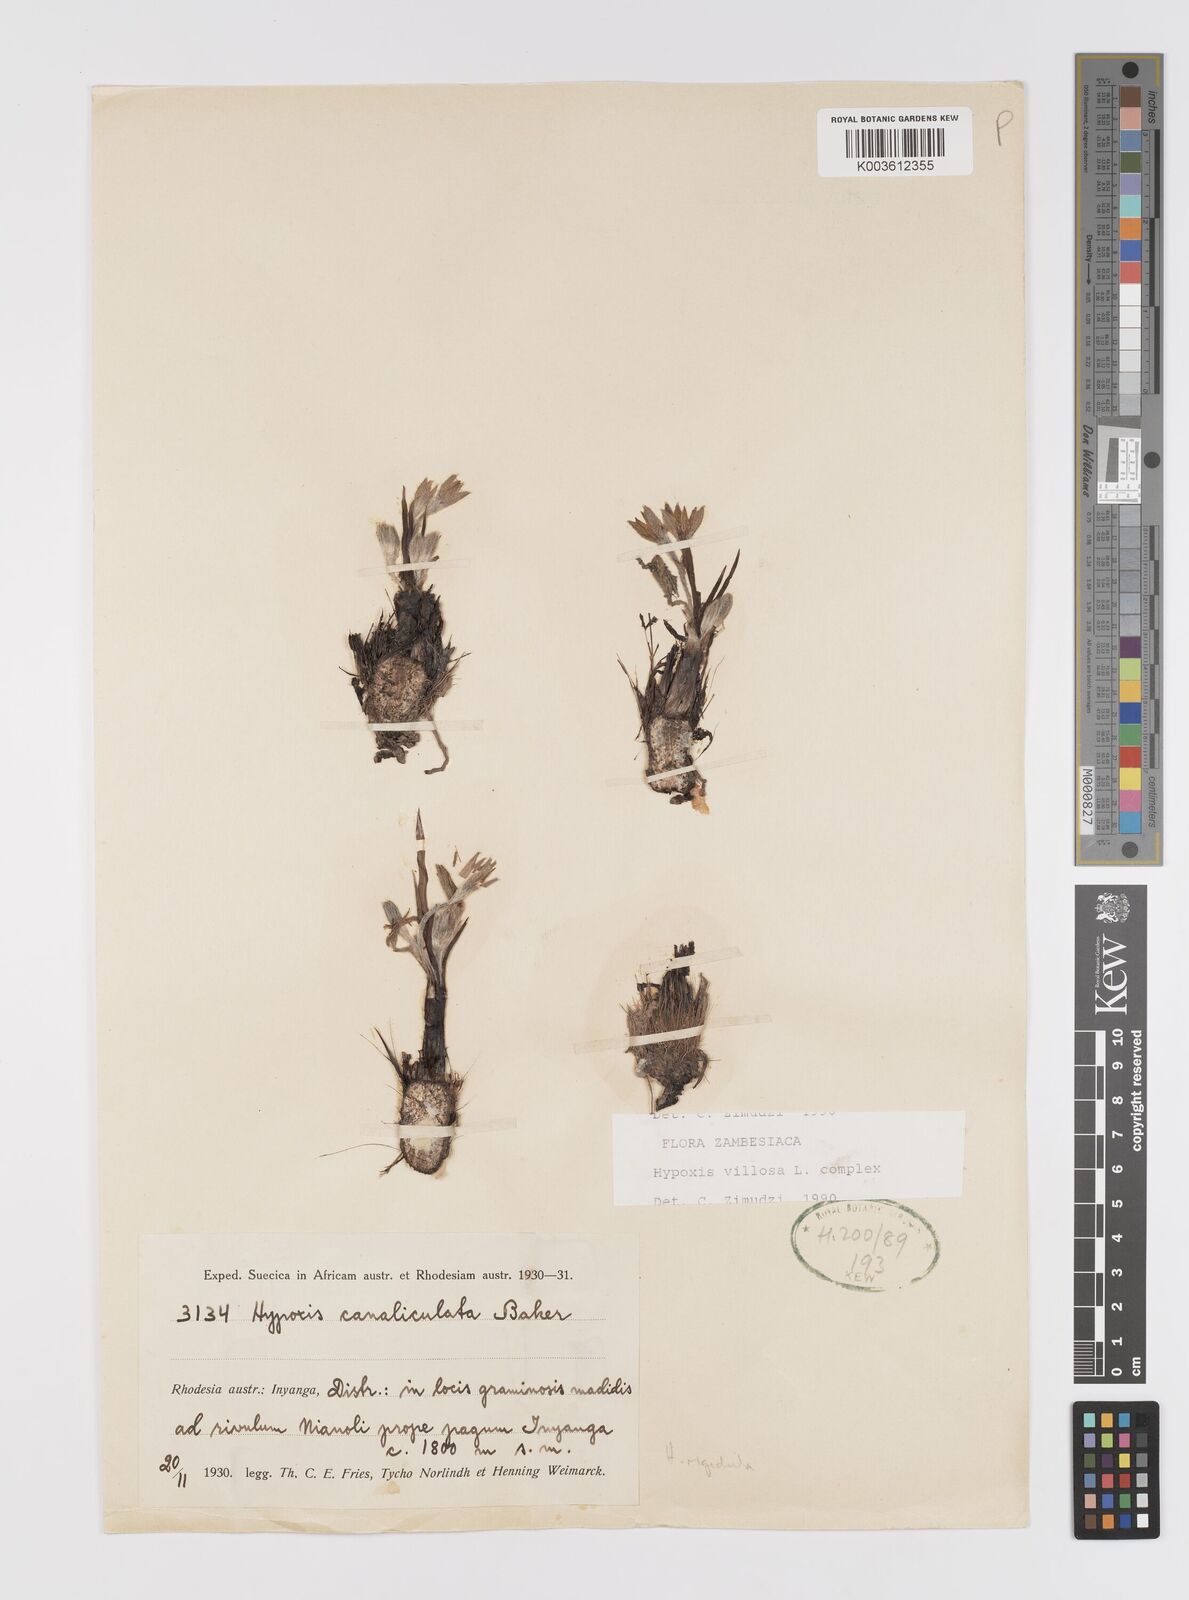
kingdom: Plantae
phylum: Tracheophyta
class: Liliopsida
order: Asparagales
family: Hypoxidaceae
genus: Hypoxis
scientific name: Hypoxis rigidula
